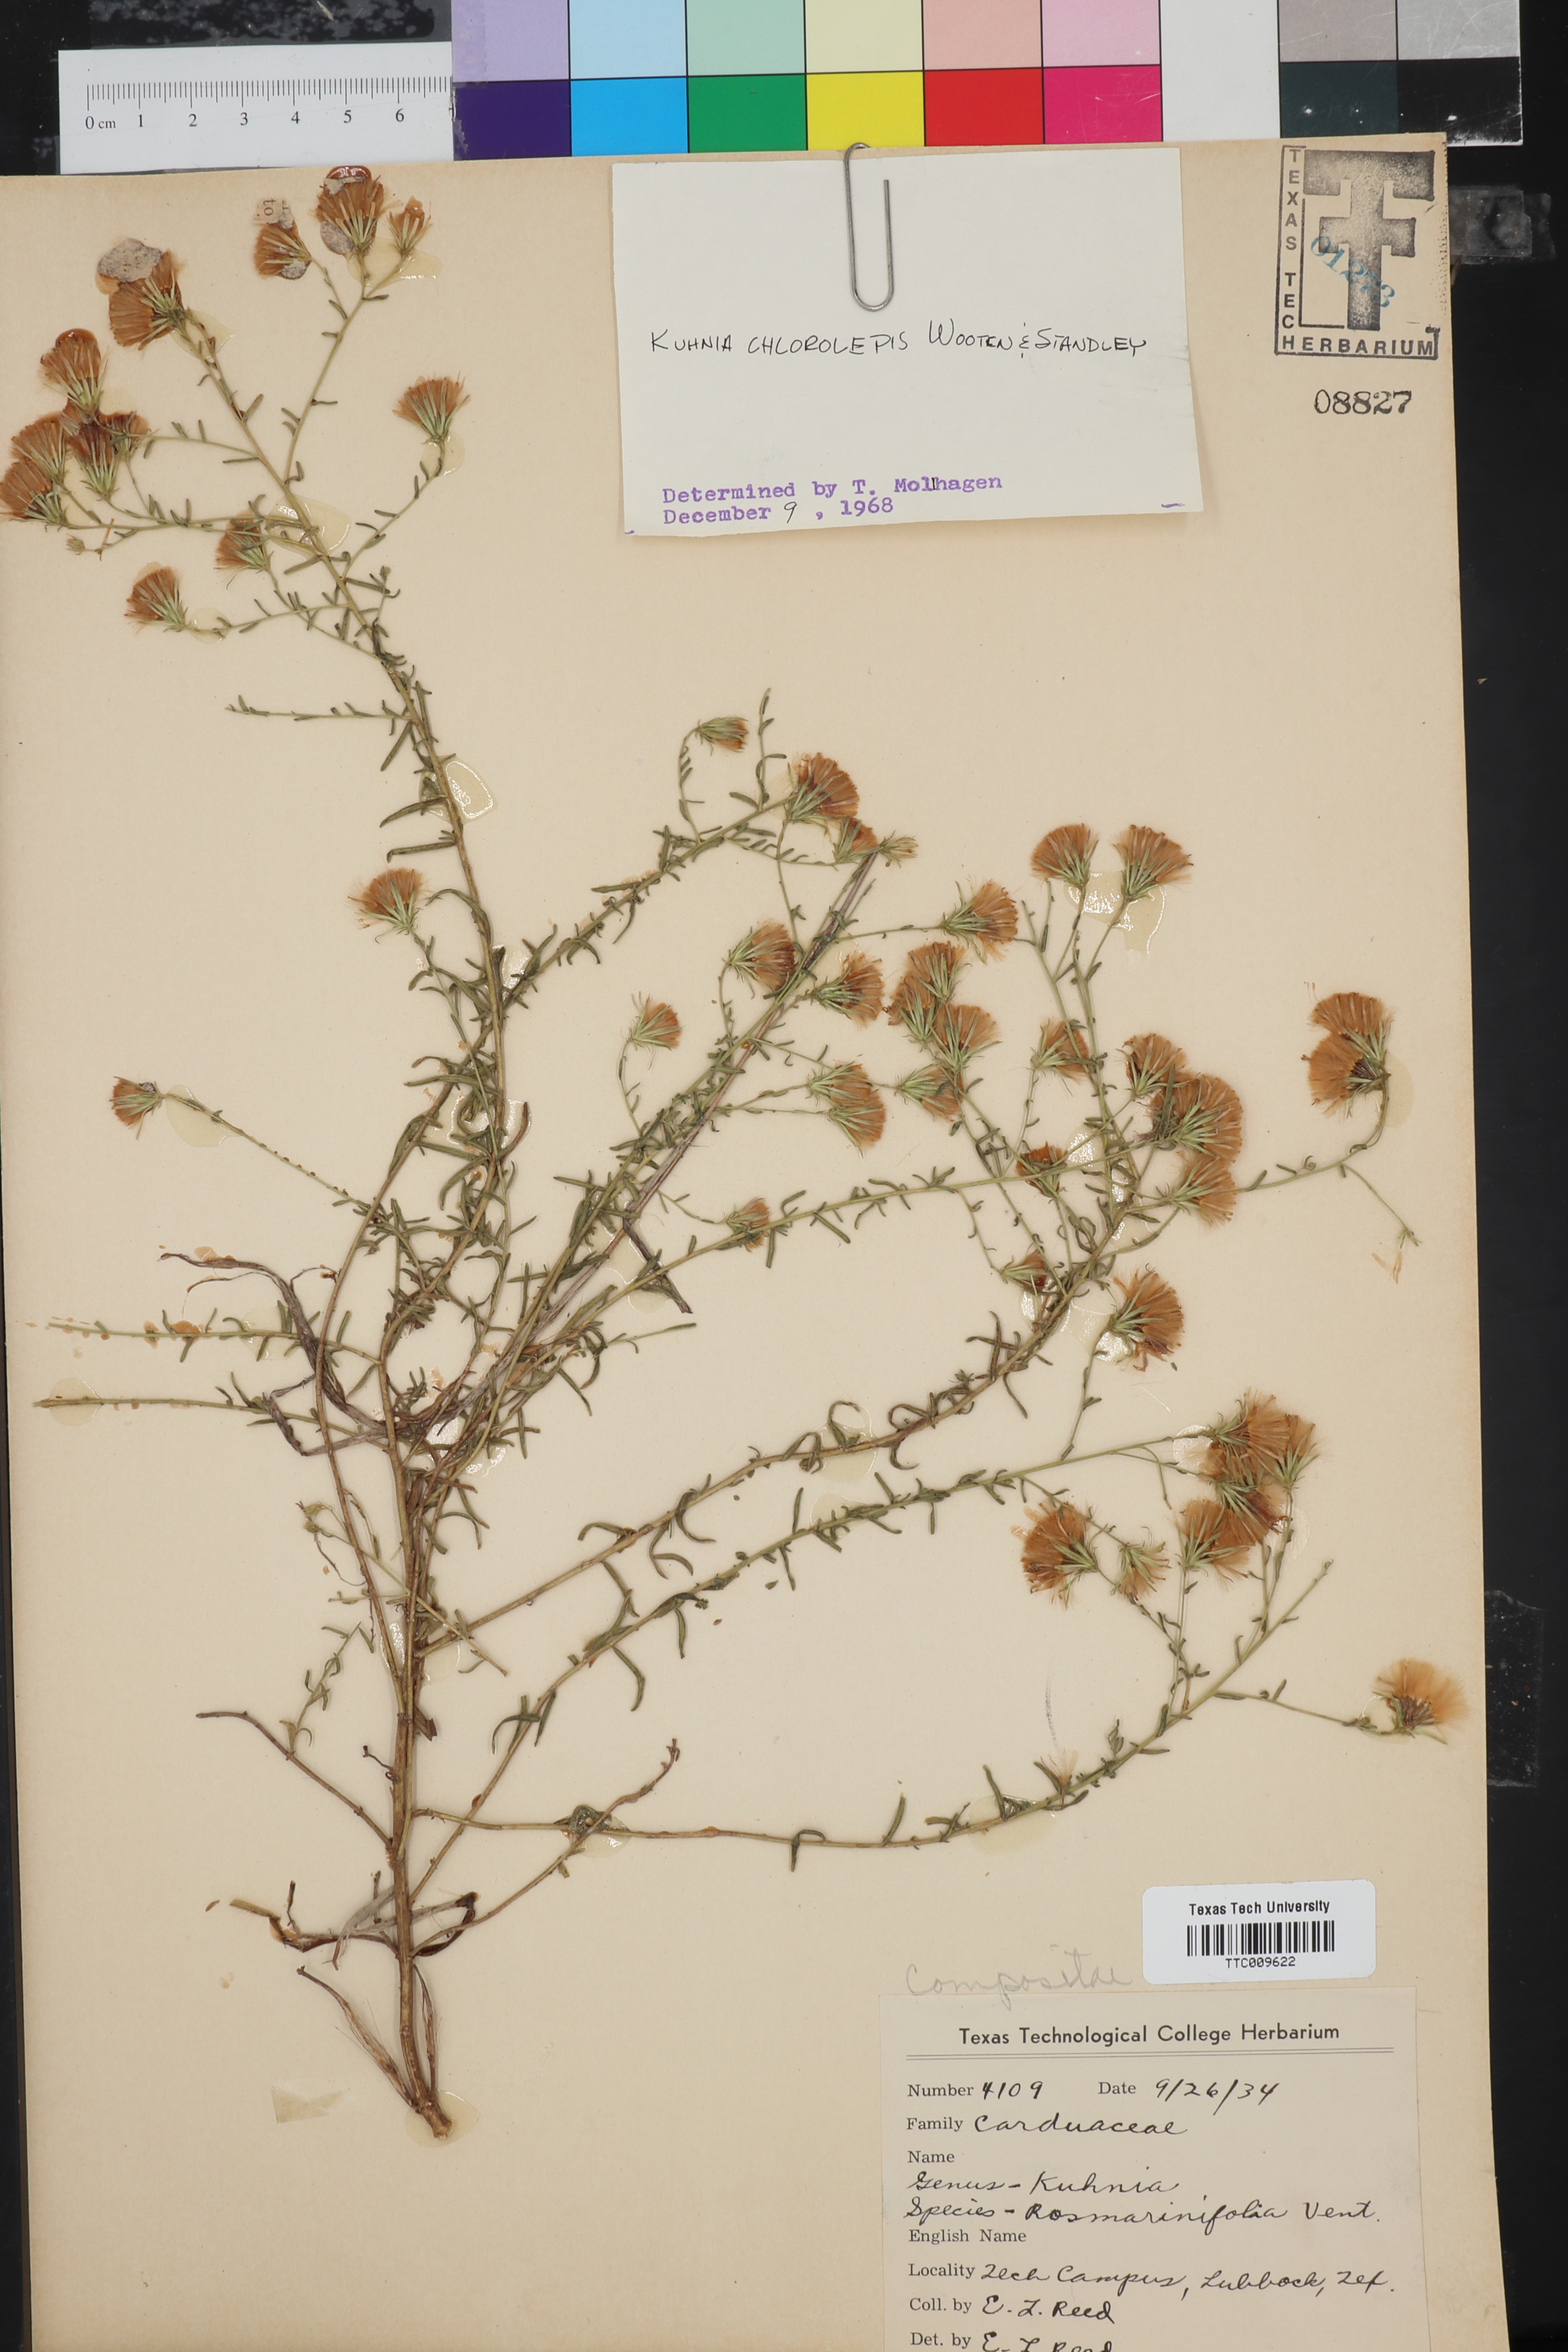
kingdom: Plantae
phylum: Tracheophyta
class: Magnoliopsida
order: Asterales
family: Asteraceae
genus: Brickellia
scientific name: Brickellia leptophylla
